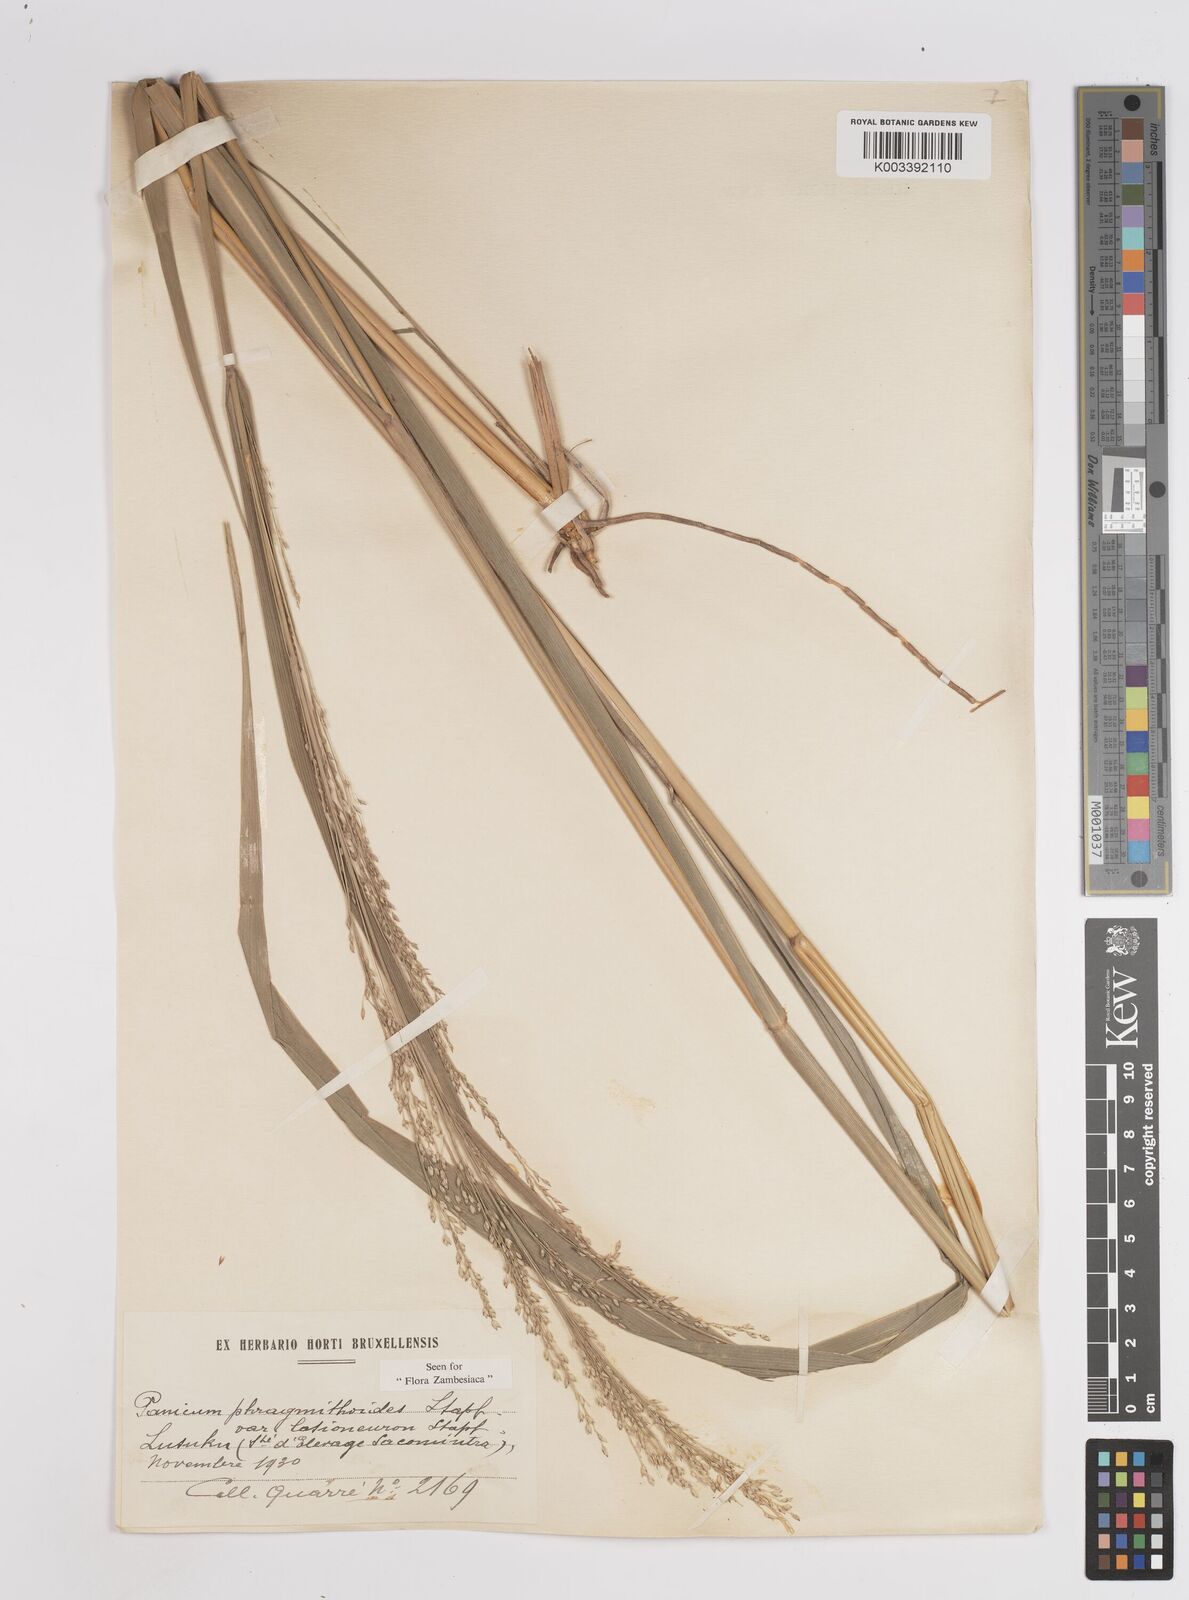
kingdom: Plantae
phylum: Tracheophyta
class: Liliopsida
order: Poales
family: Poaceae
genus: Panicum
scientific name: Panicum phragmitoides
